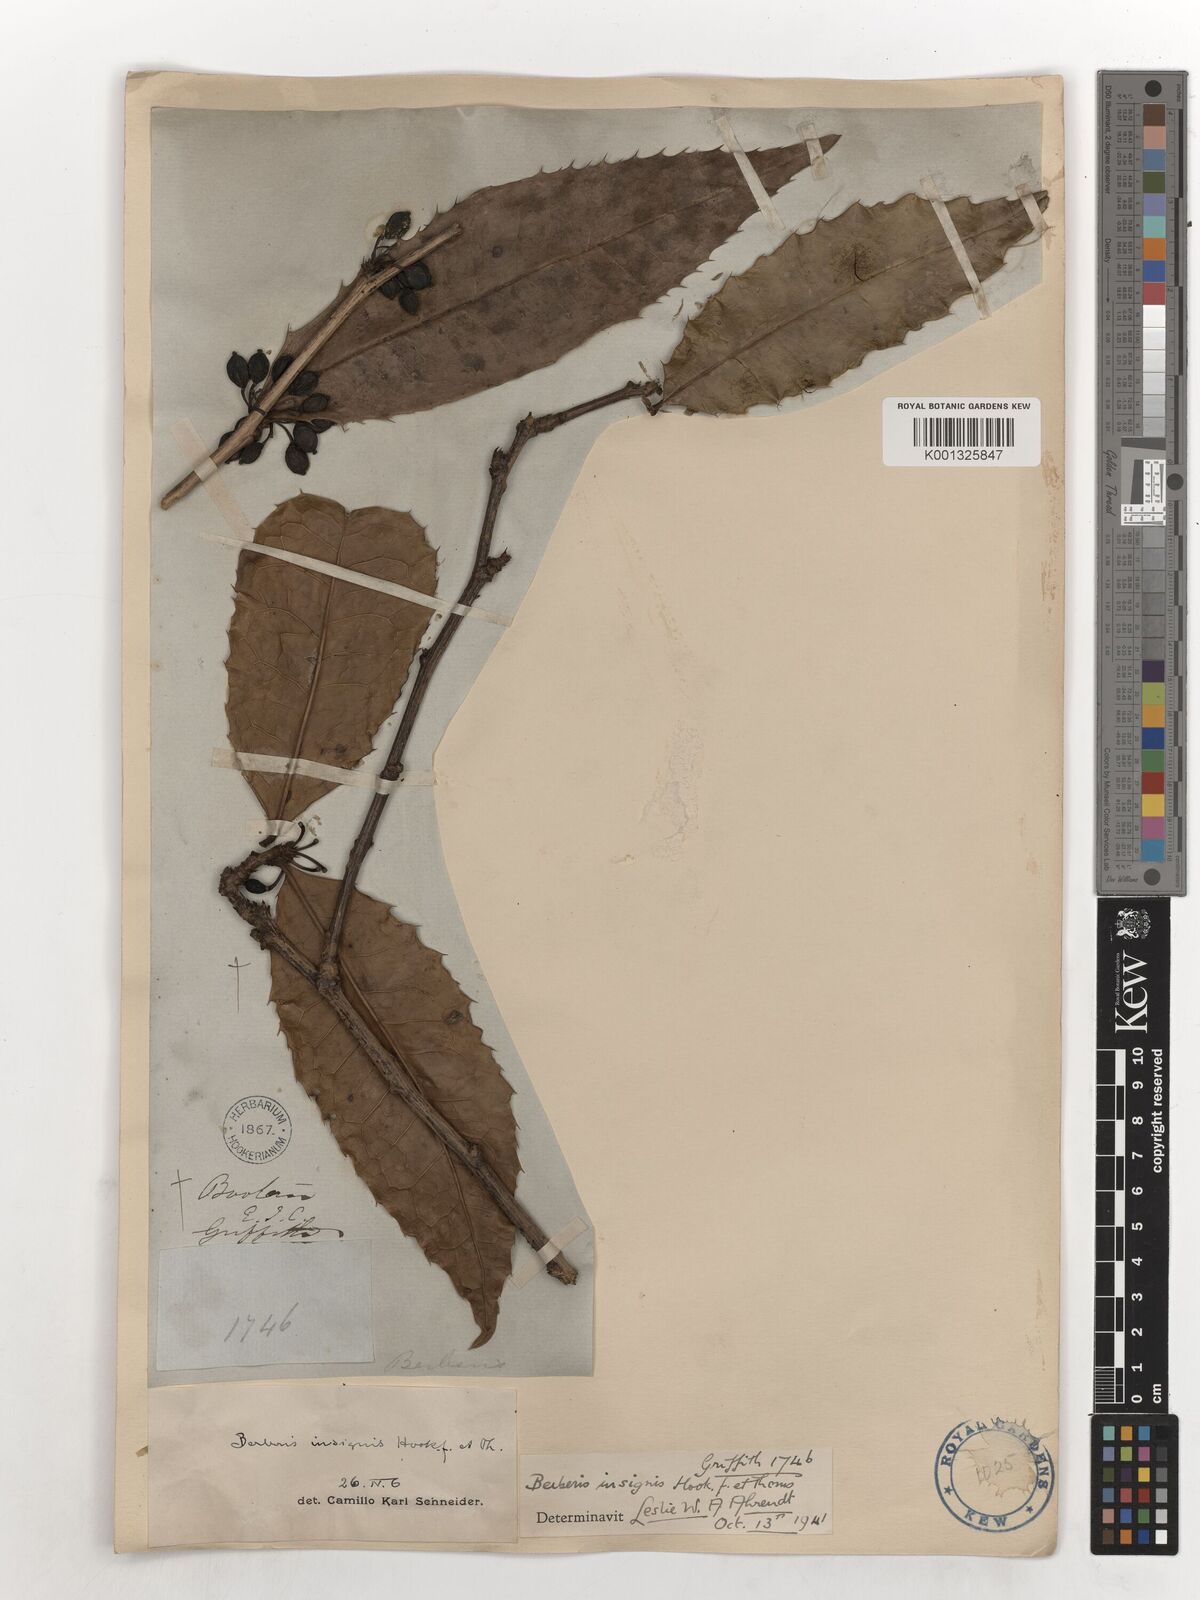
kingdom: Plantae
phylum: Tracheophyta
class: Magnoliopsida
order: Ranunculales
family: Berberidaceae
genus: Berberis
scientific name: Berberis insignis
